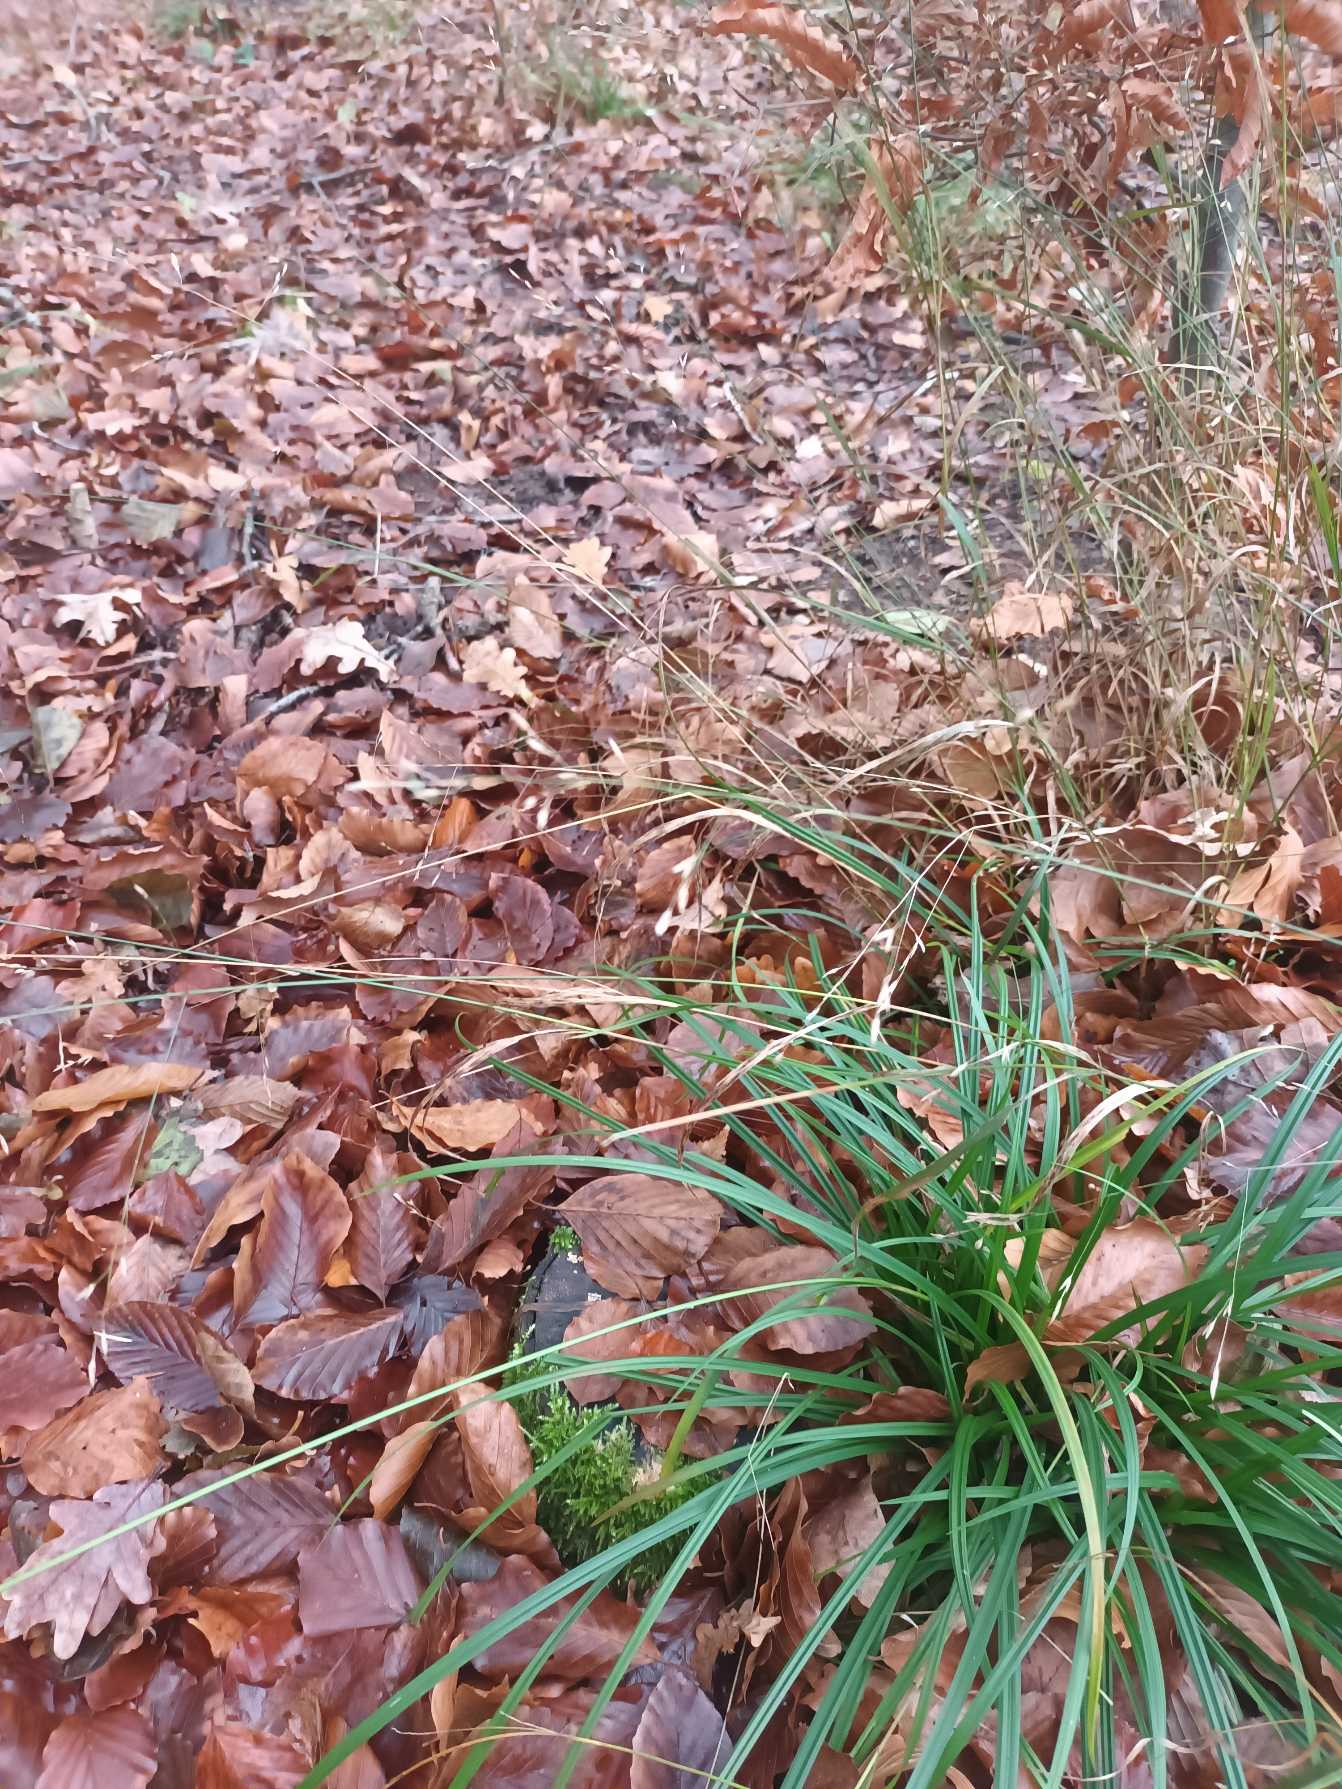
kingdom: Plantae
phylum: Tracheophyta
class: Liliopsida
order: Poales
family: Poaceae
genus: Melica
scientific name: Melica uniflora
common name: Enblomstret flitteraks
